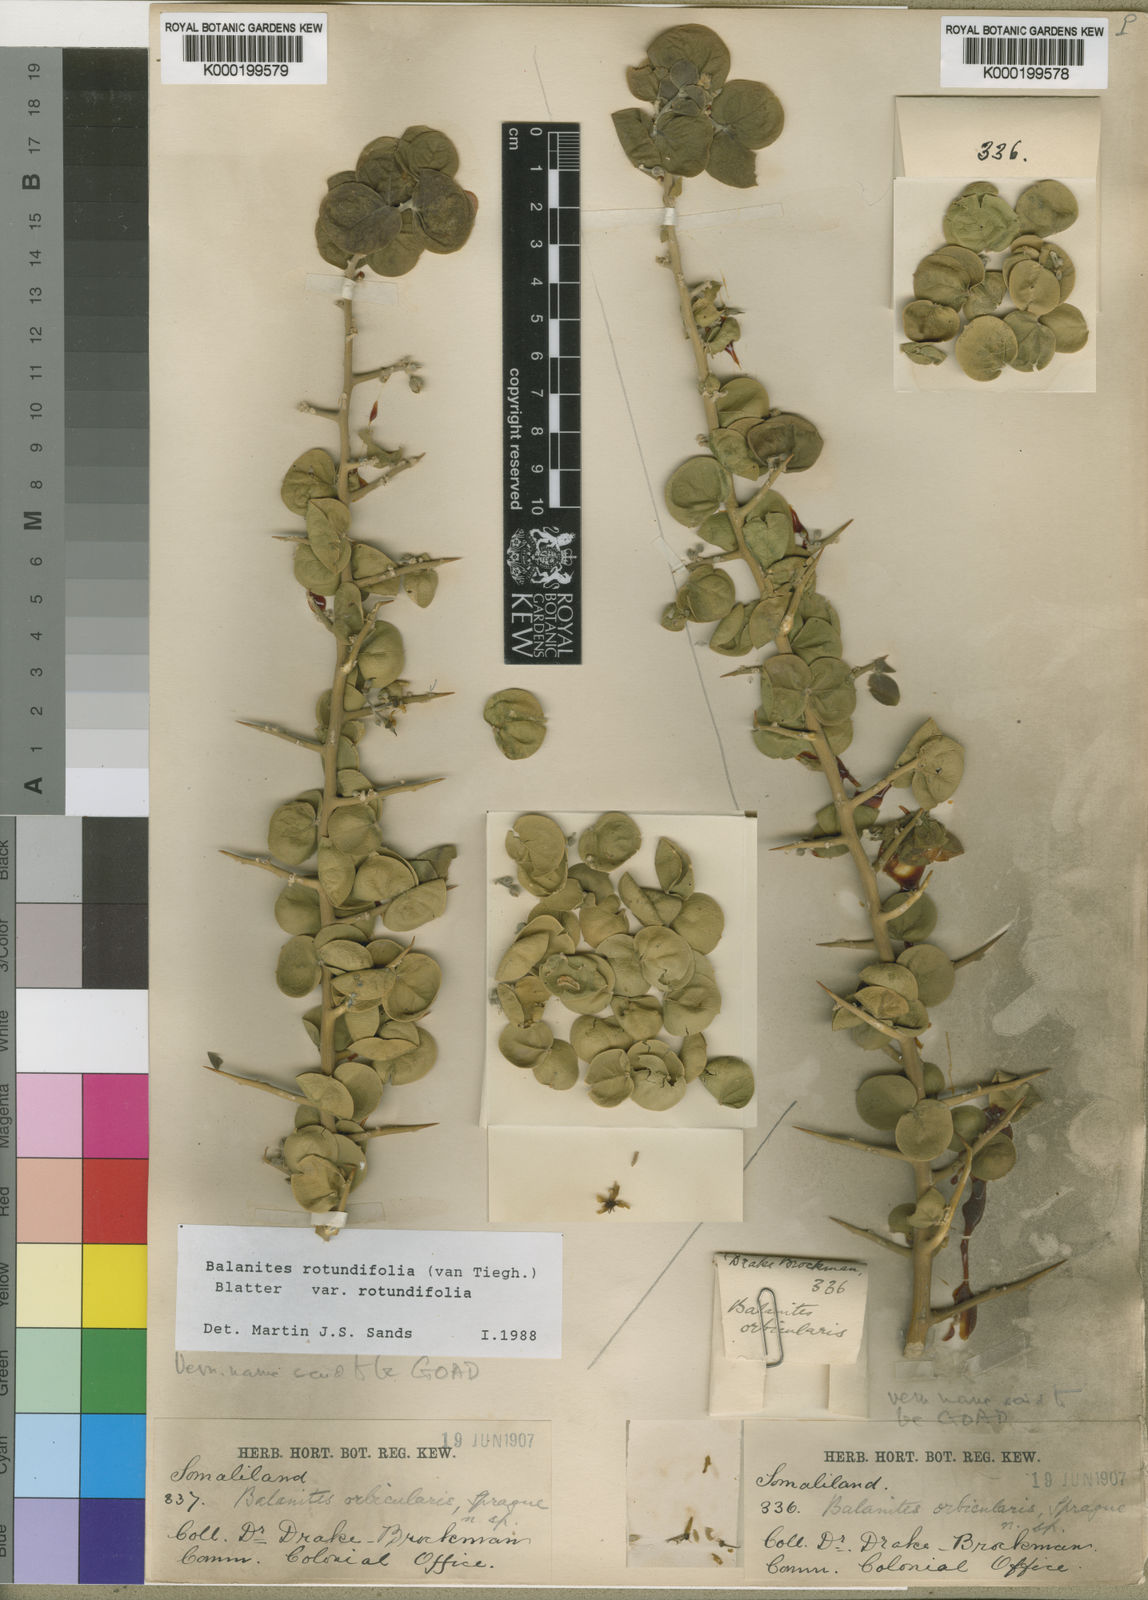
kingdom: Plantae
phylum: Tracheophyta
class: Magnoliopsida
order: Zygophyllales
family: Zygophyllaceae
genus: Balanites
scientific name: Balanites rotundifolia
